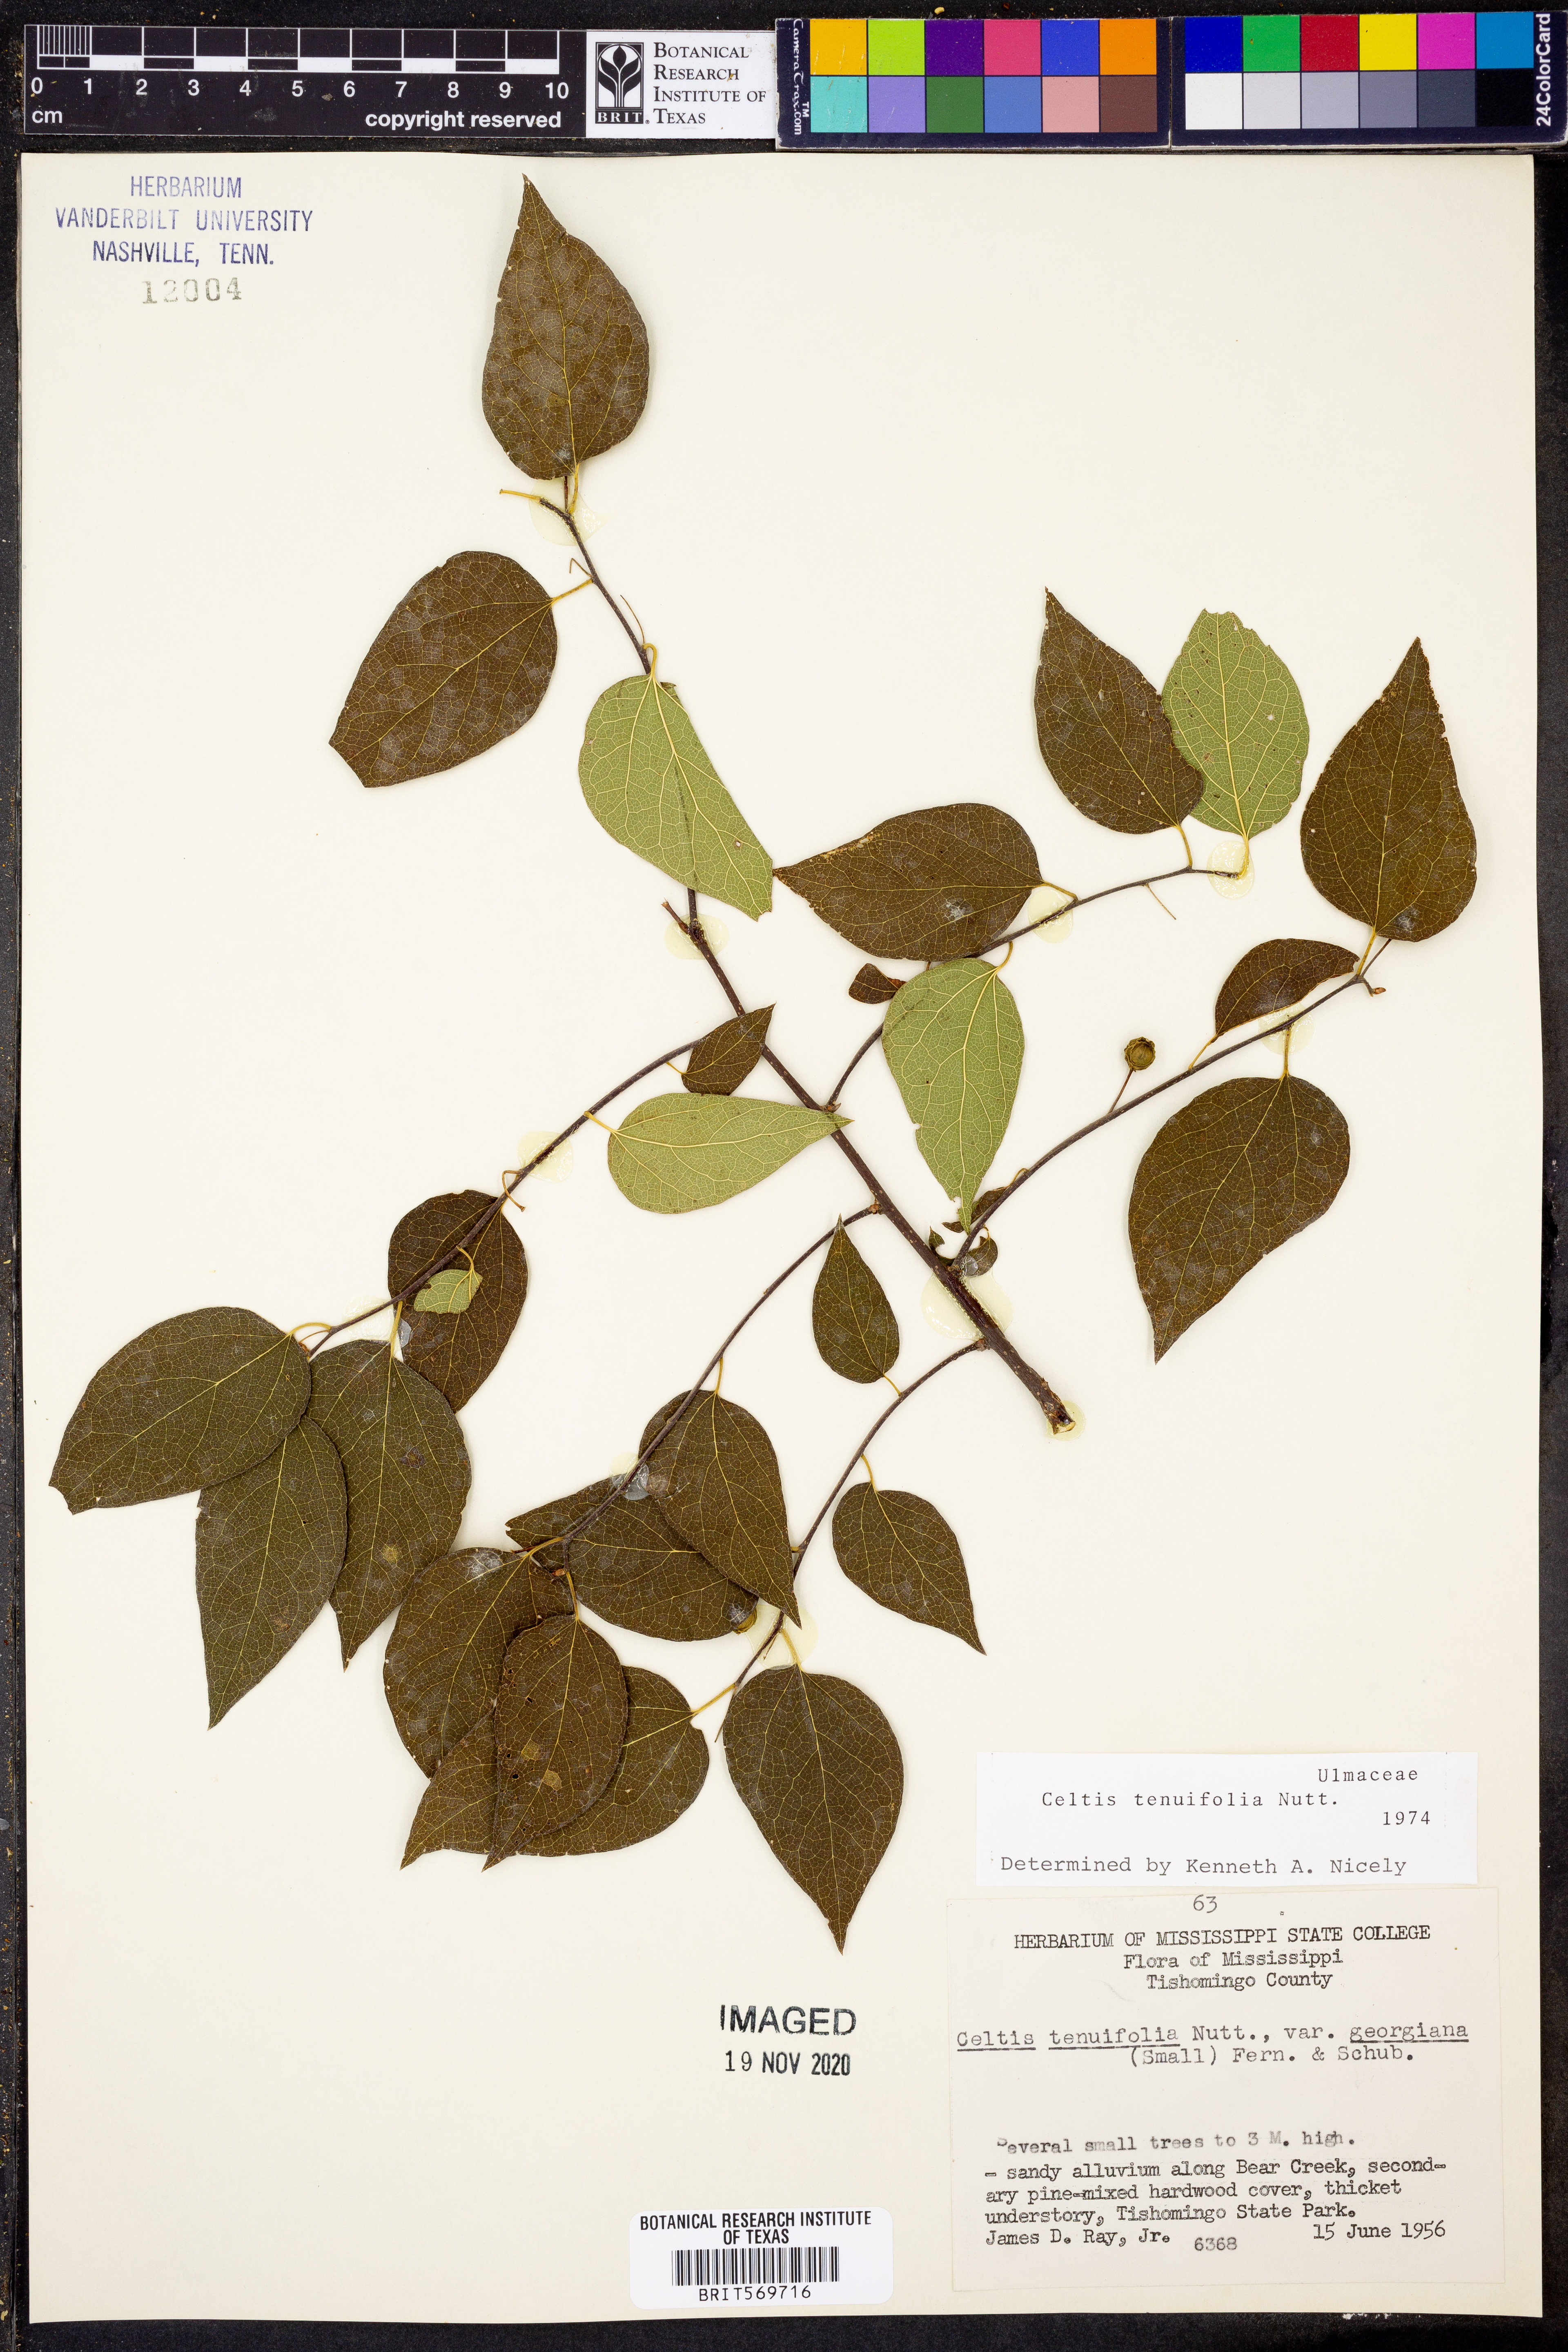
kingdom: Plantae
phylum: Tracheophyta
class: Magnoliopsida
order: Rosales
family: Cannabaceae
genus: Celtis
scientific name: Celtis tenuifolia
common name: Georgia hackberry
